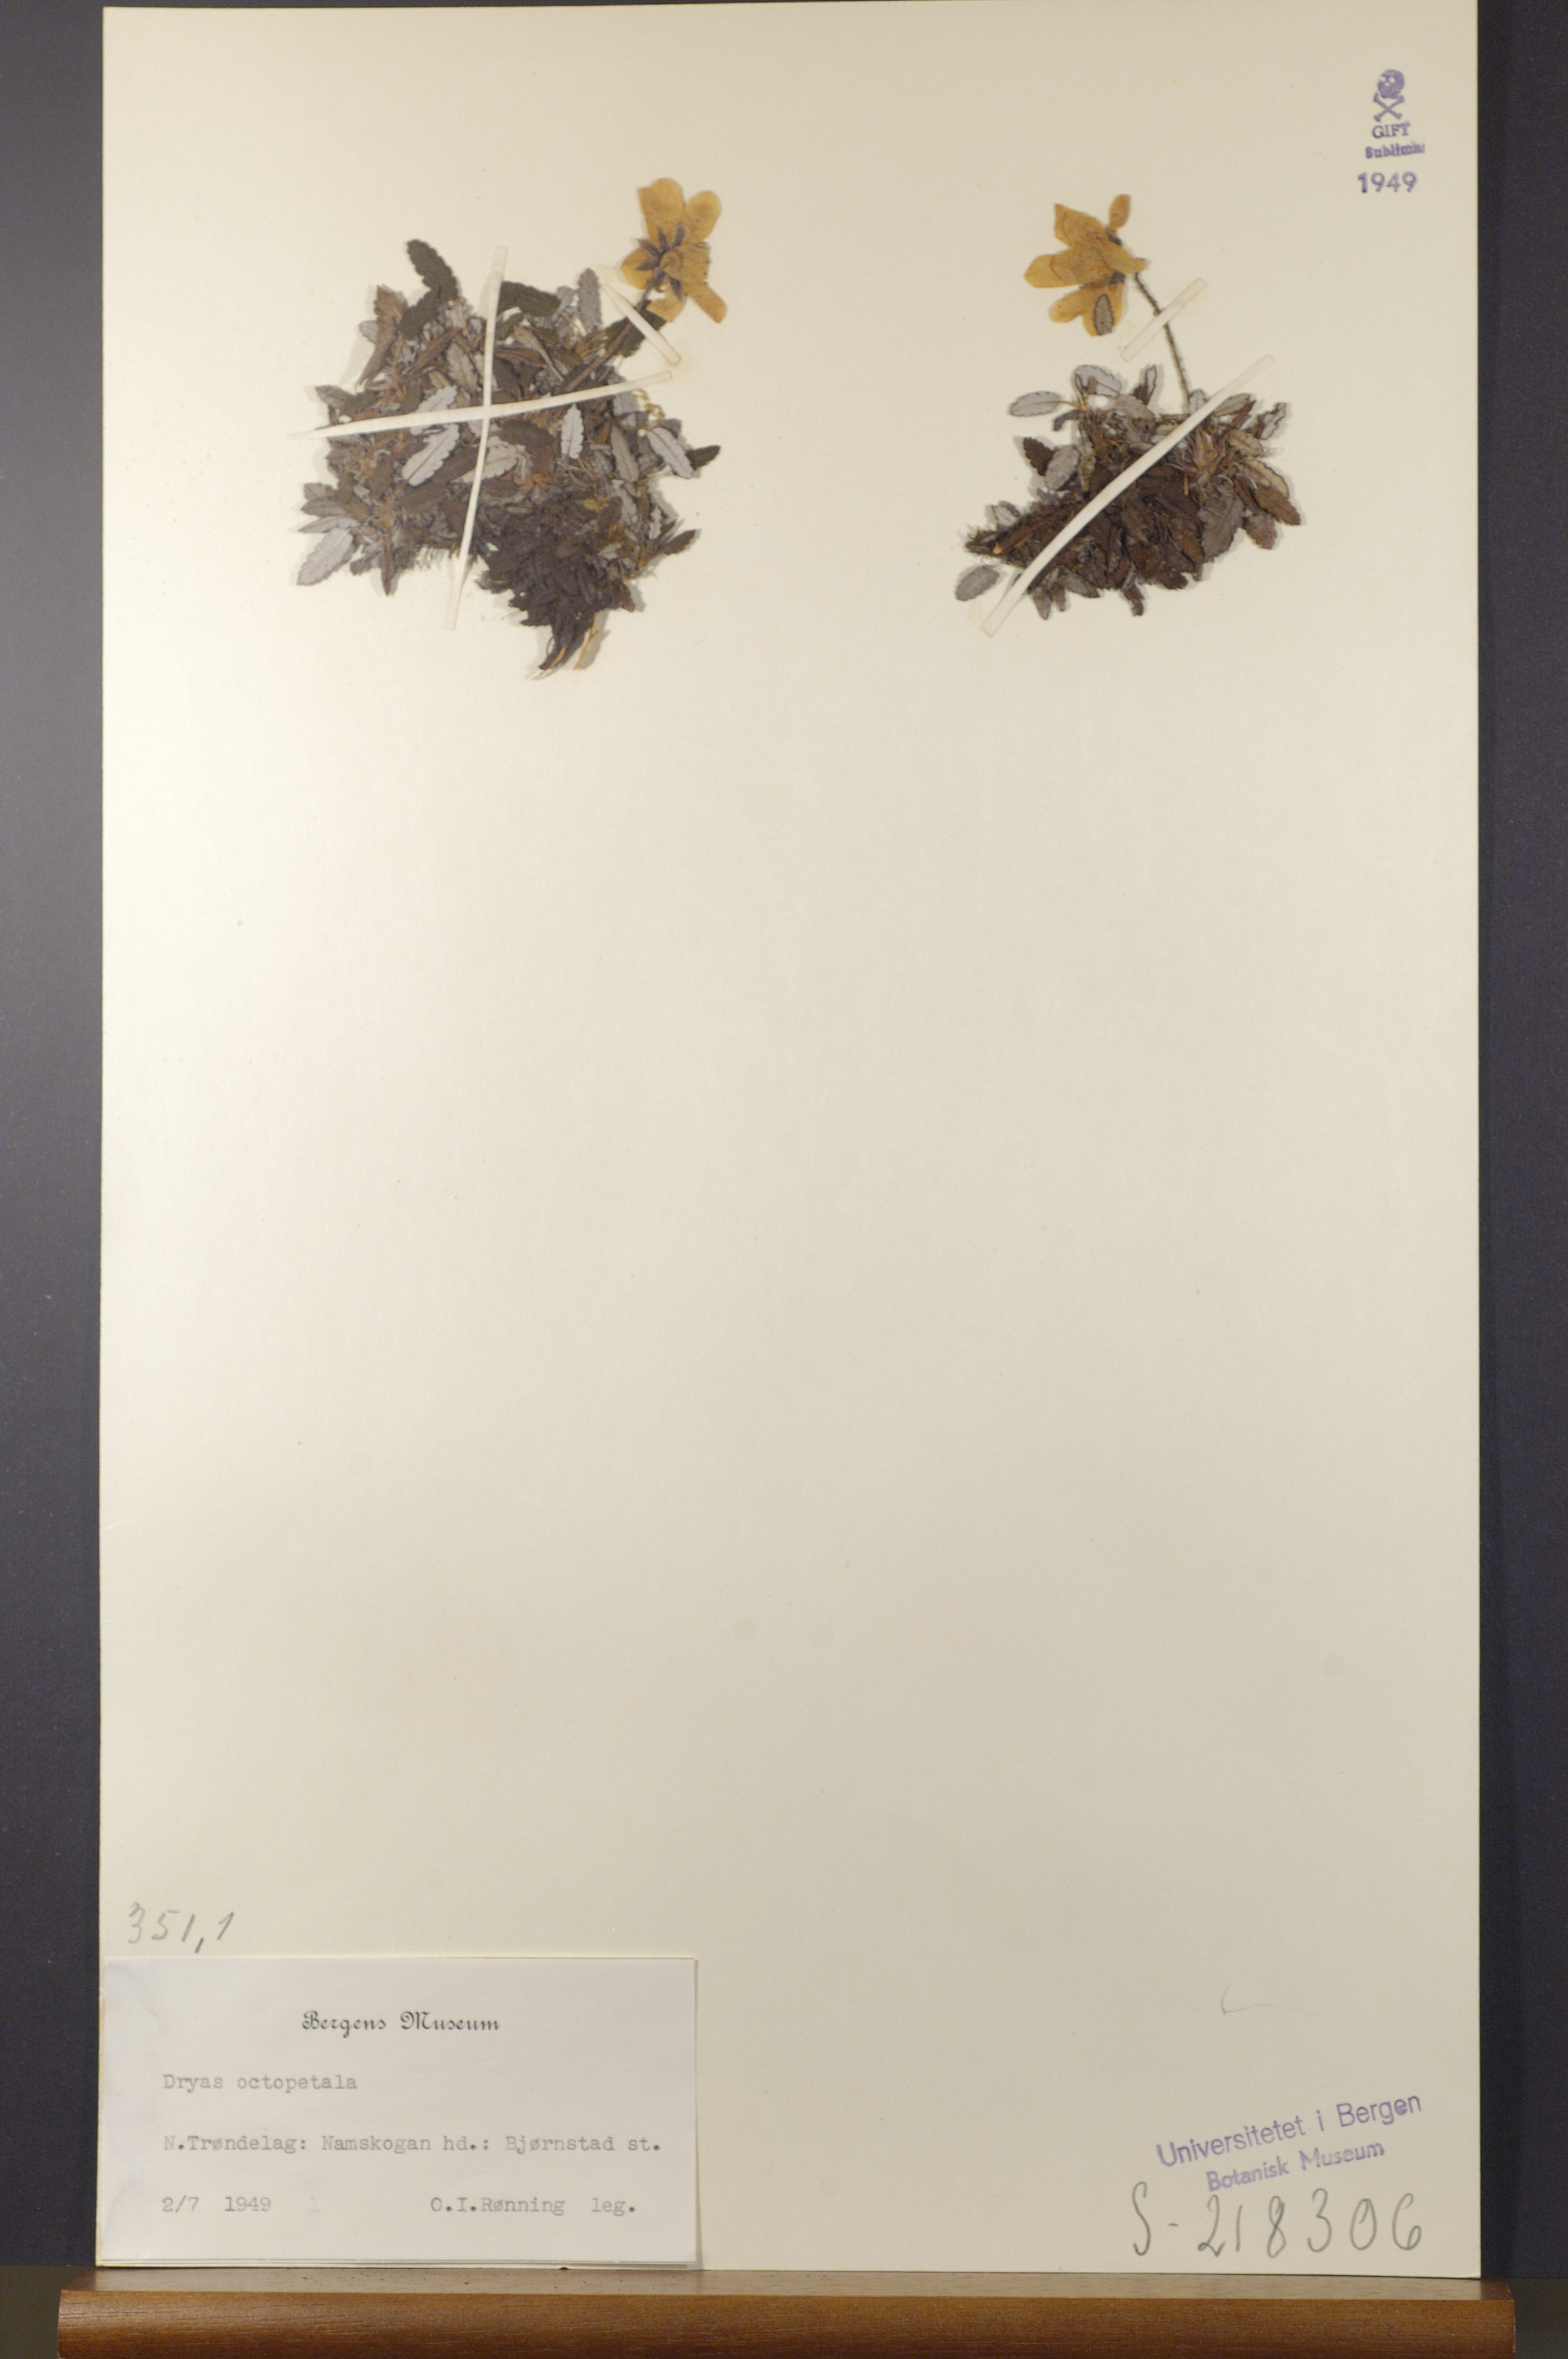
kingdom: Plantae
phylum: Tracheophyta
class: Magnoliopsida
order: Rosales
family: Rosaceae
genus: Dryas
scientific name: Dryas octopetala
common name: Eight-petal mountain-avens
